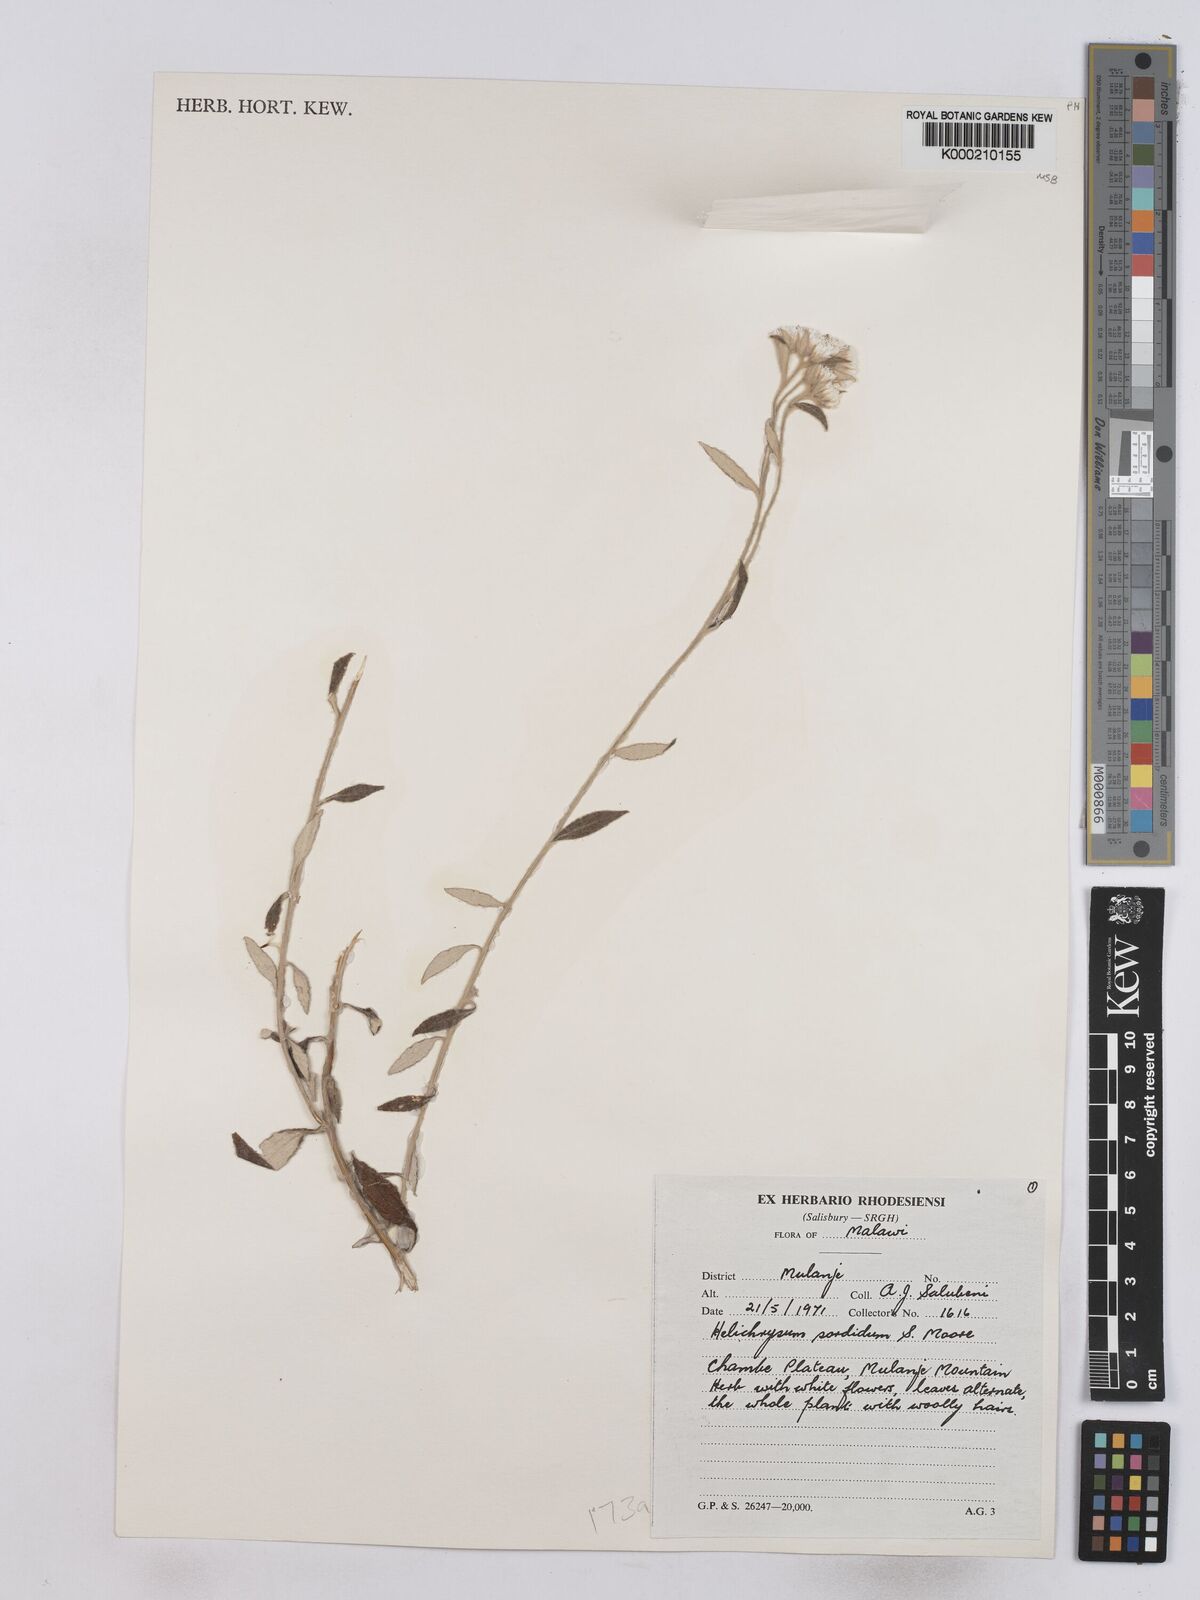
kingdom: Plantae
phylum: Tracheophyta
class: Magnoliopsida
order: Asterales
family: Asteraceae
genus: Helichrysum
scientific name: Helichrysum
